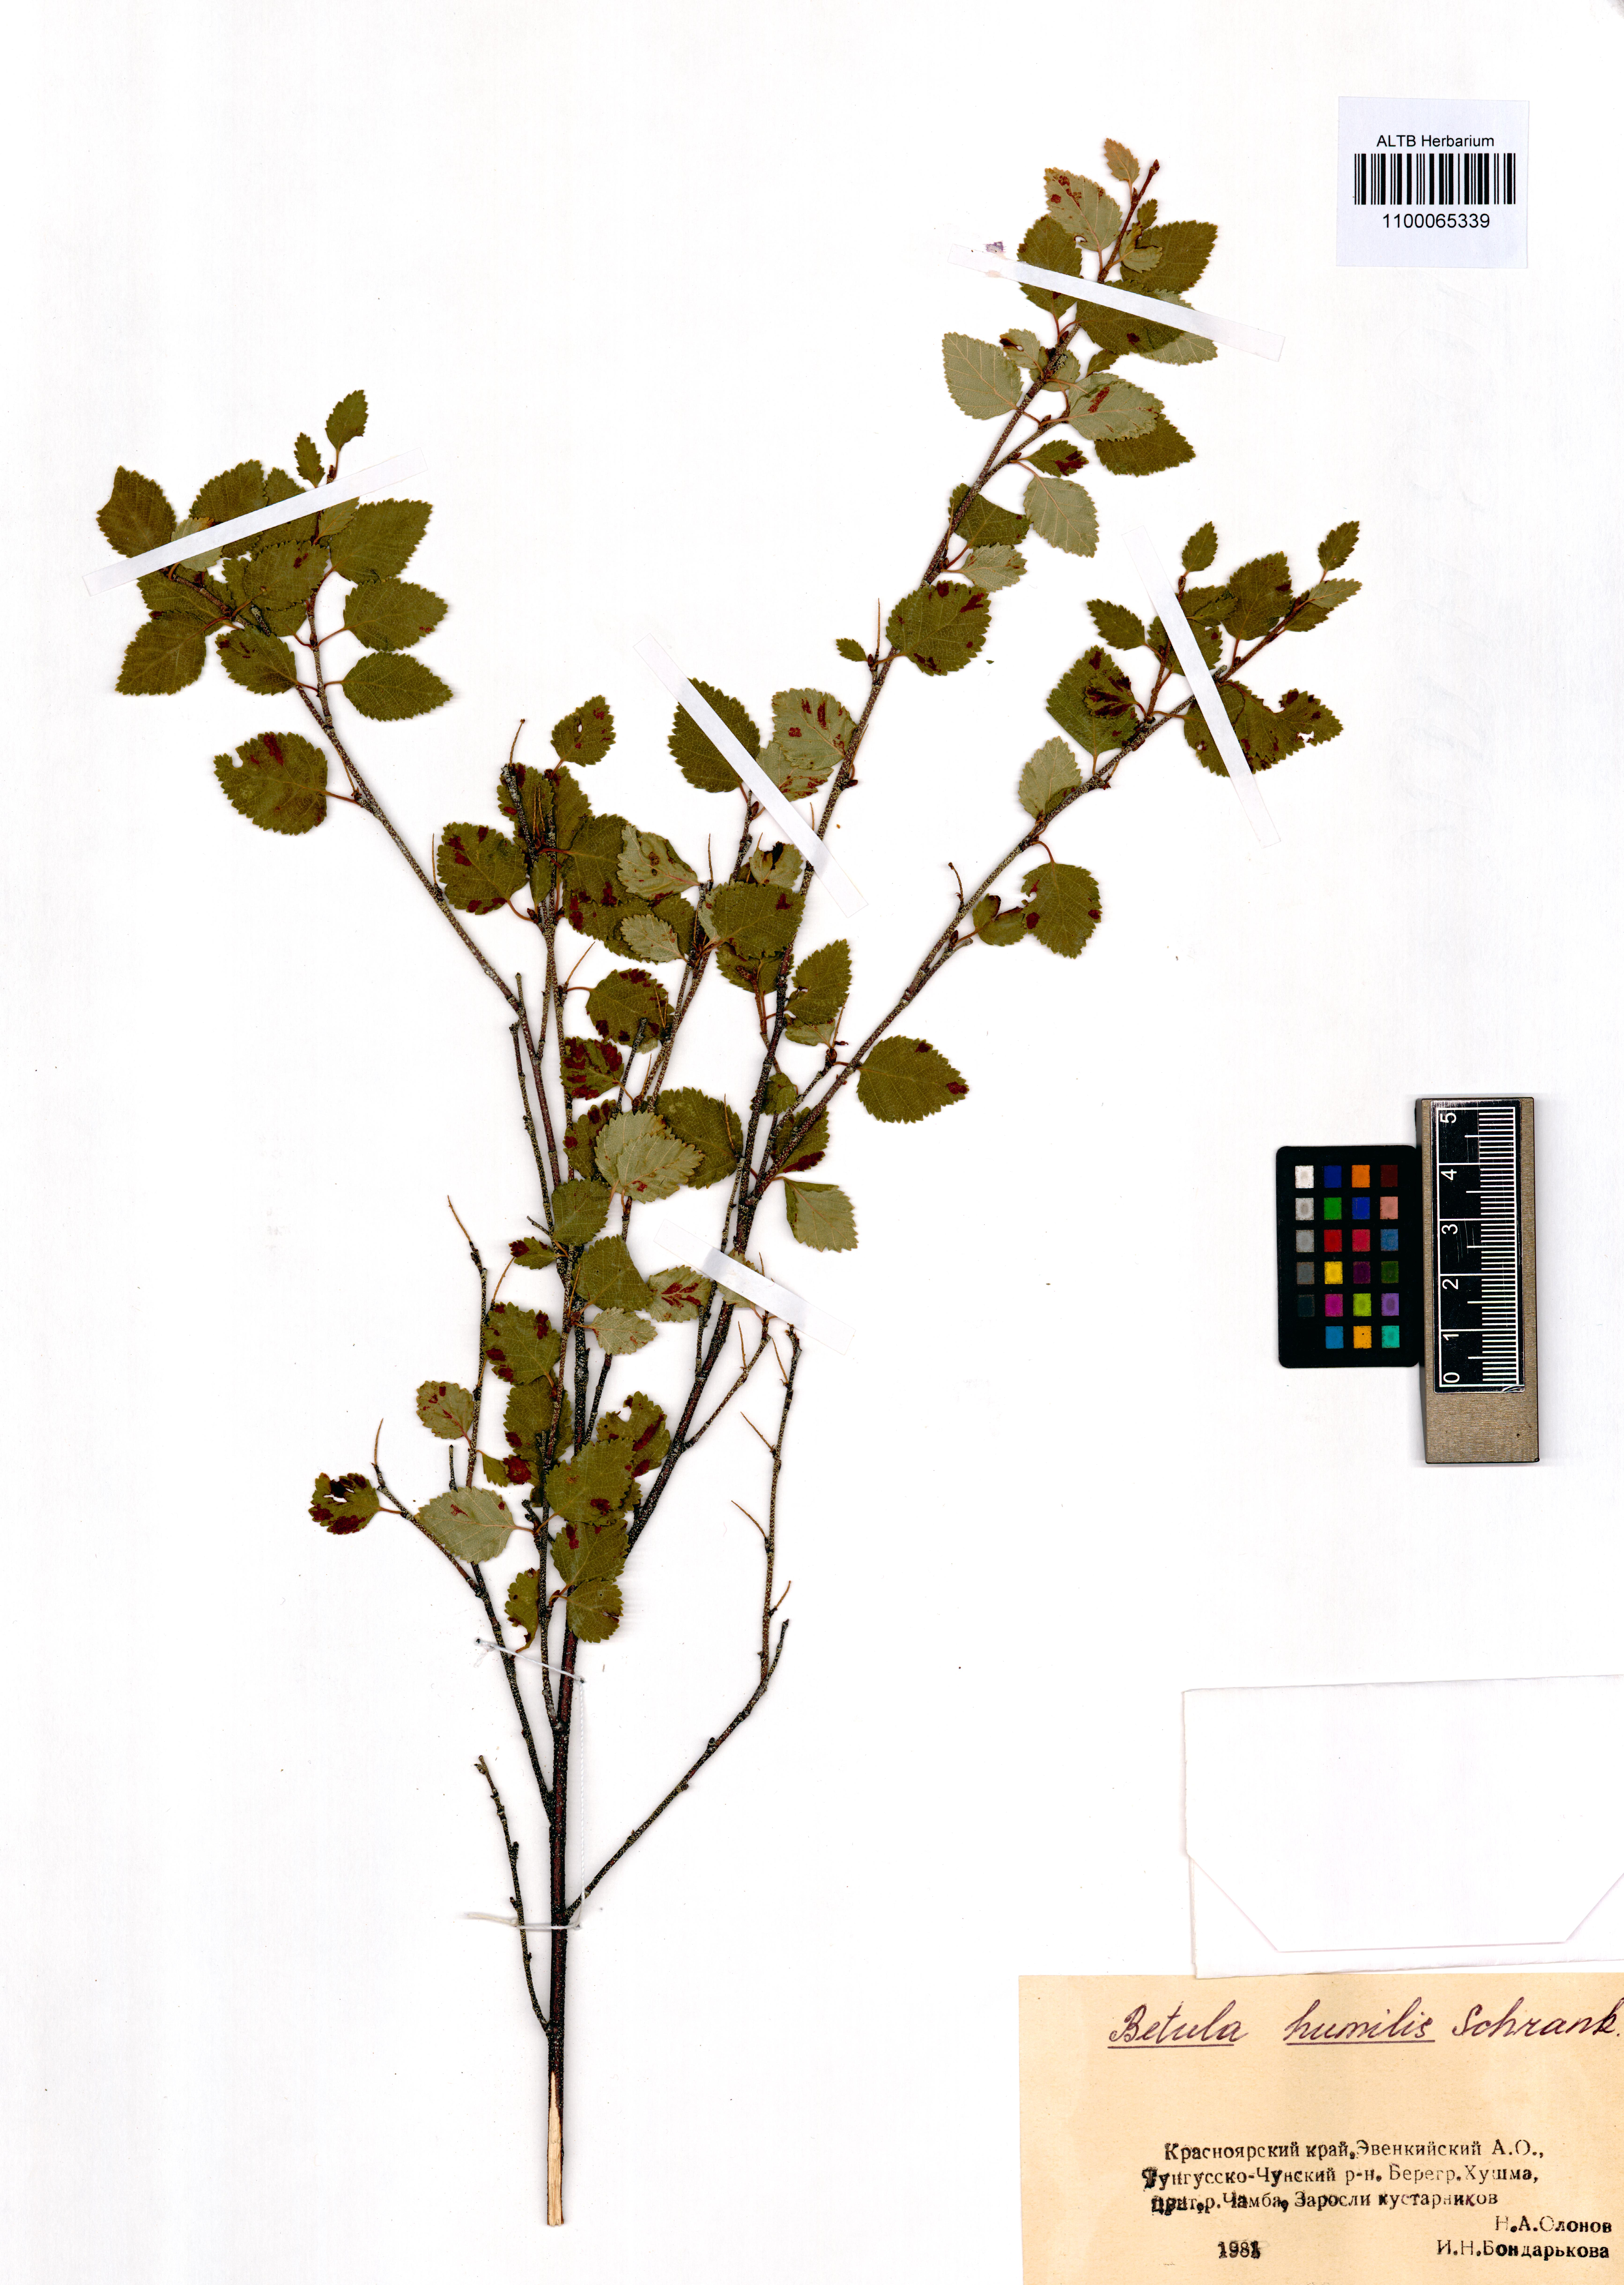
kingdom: Plantae
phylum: Tracheophyta
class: Magnoliopsida
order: Fagales
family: Betulaceae
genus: Betula
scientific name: Betula humilis
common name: Shrubby birch
